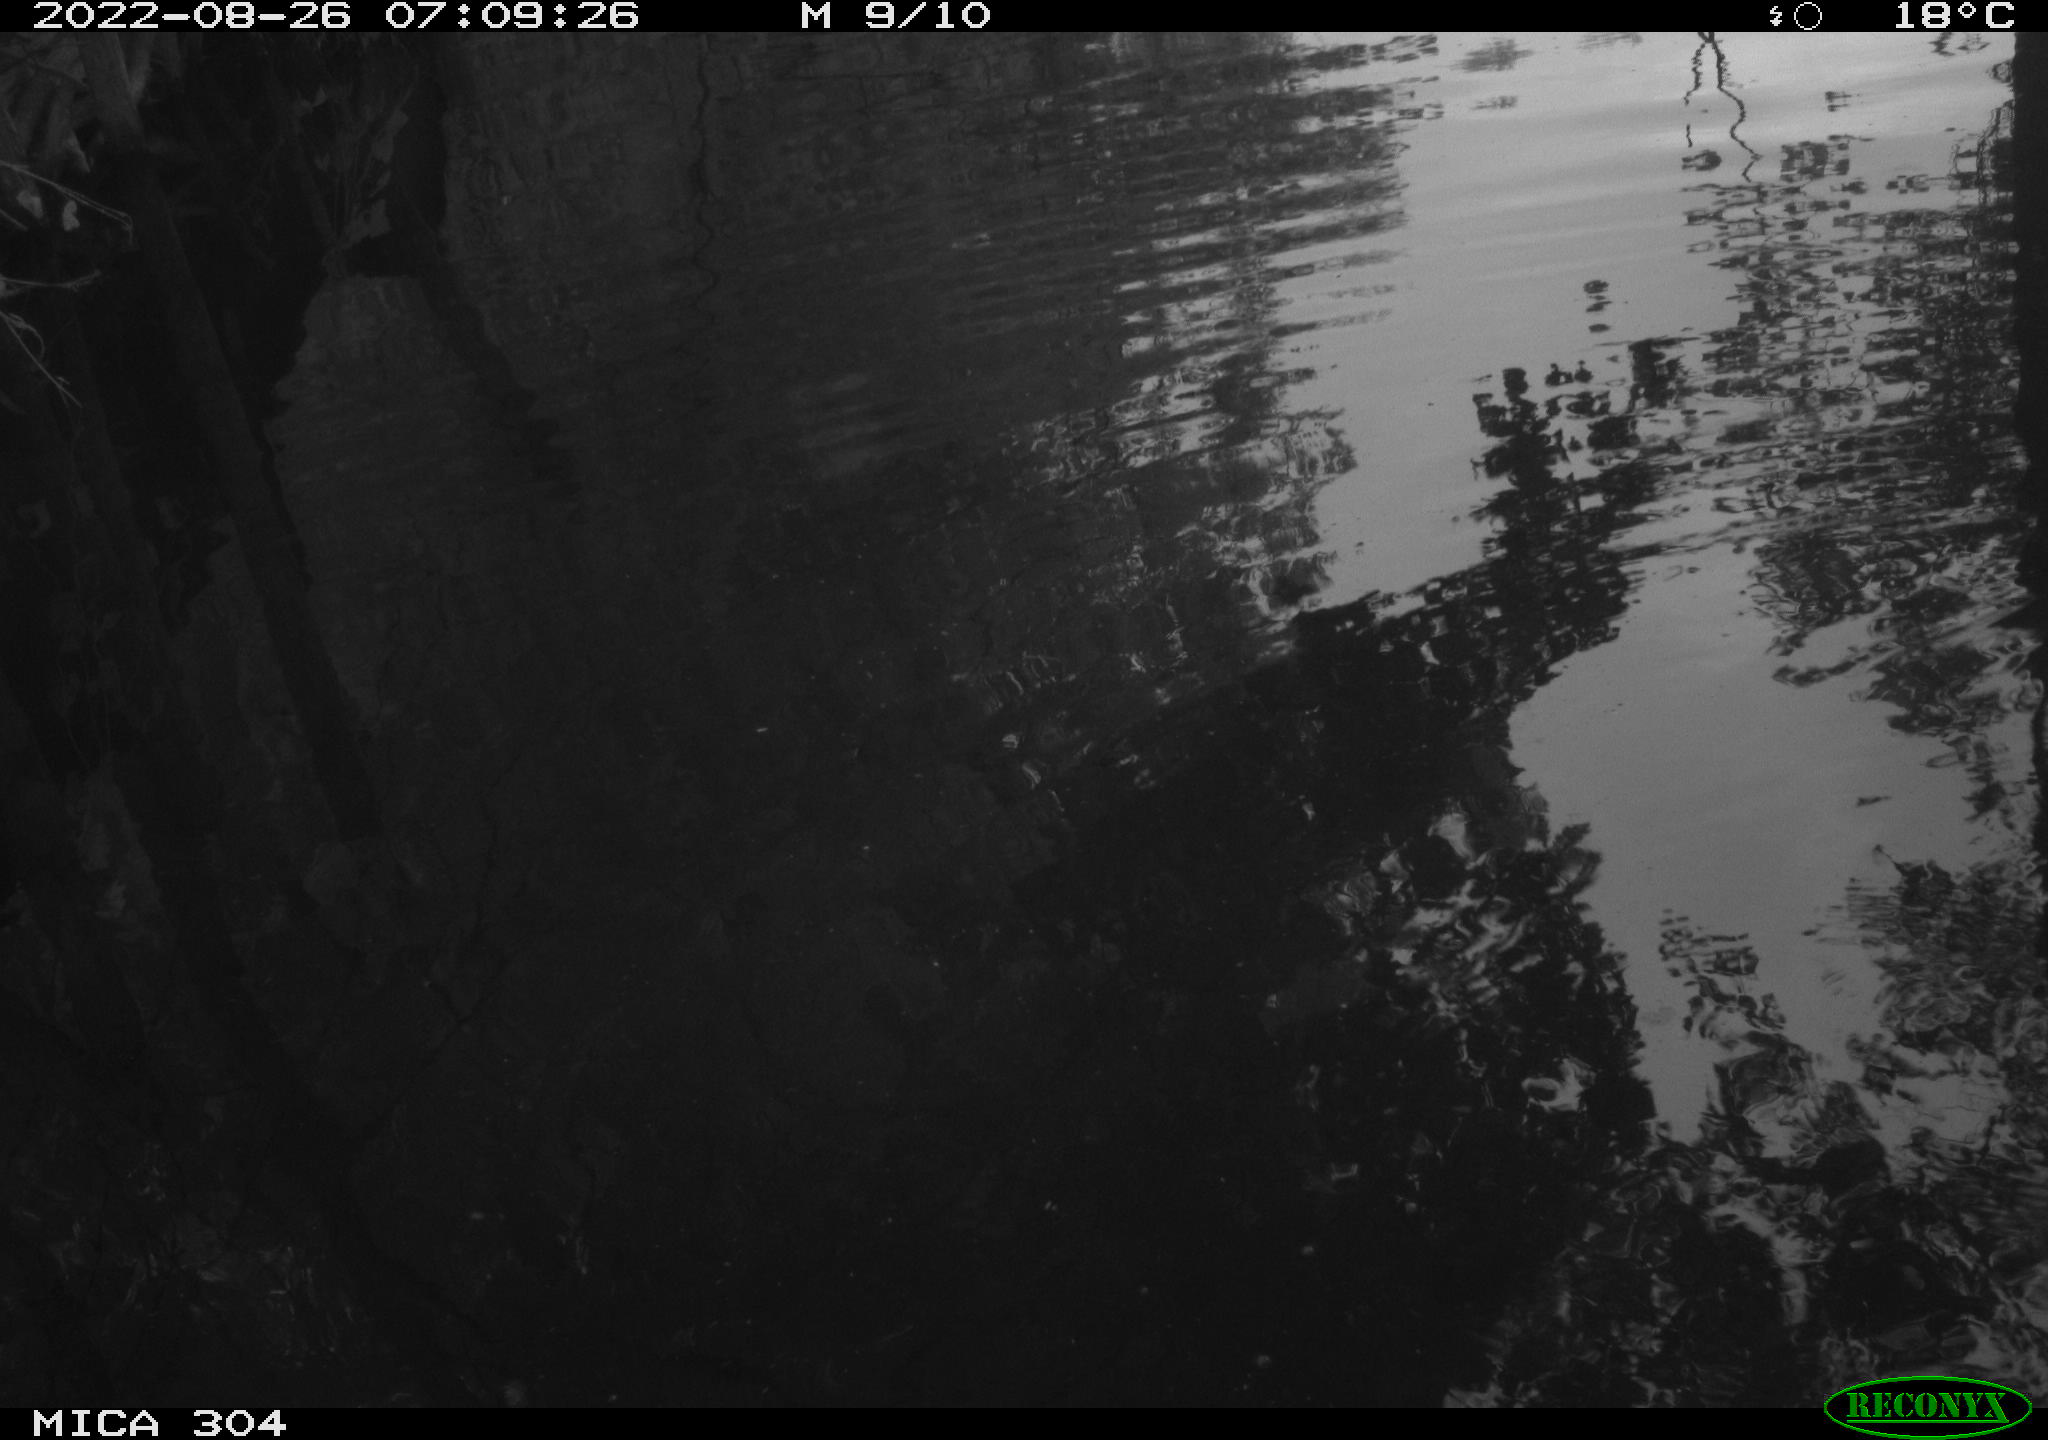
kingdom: Animalia
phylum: Chordata
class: Aves
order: Pelecaniformes
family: Ardeidae
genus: Ardea
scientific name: Ardea
